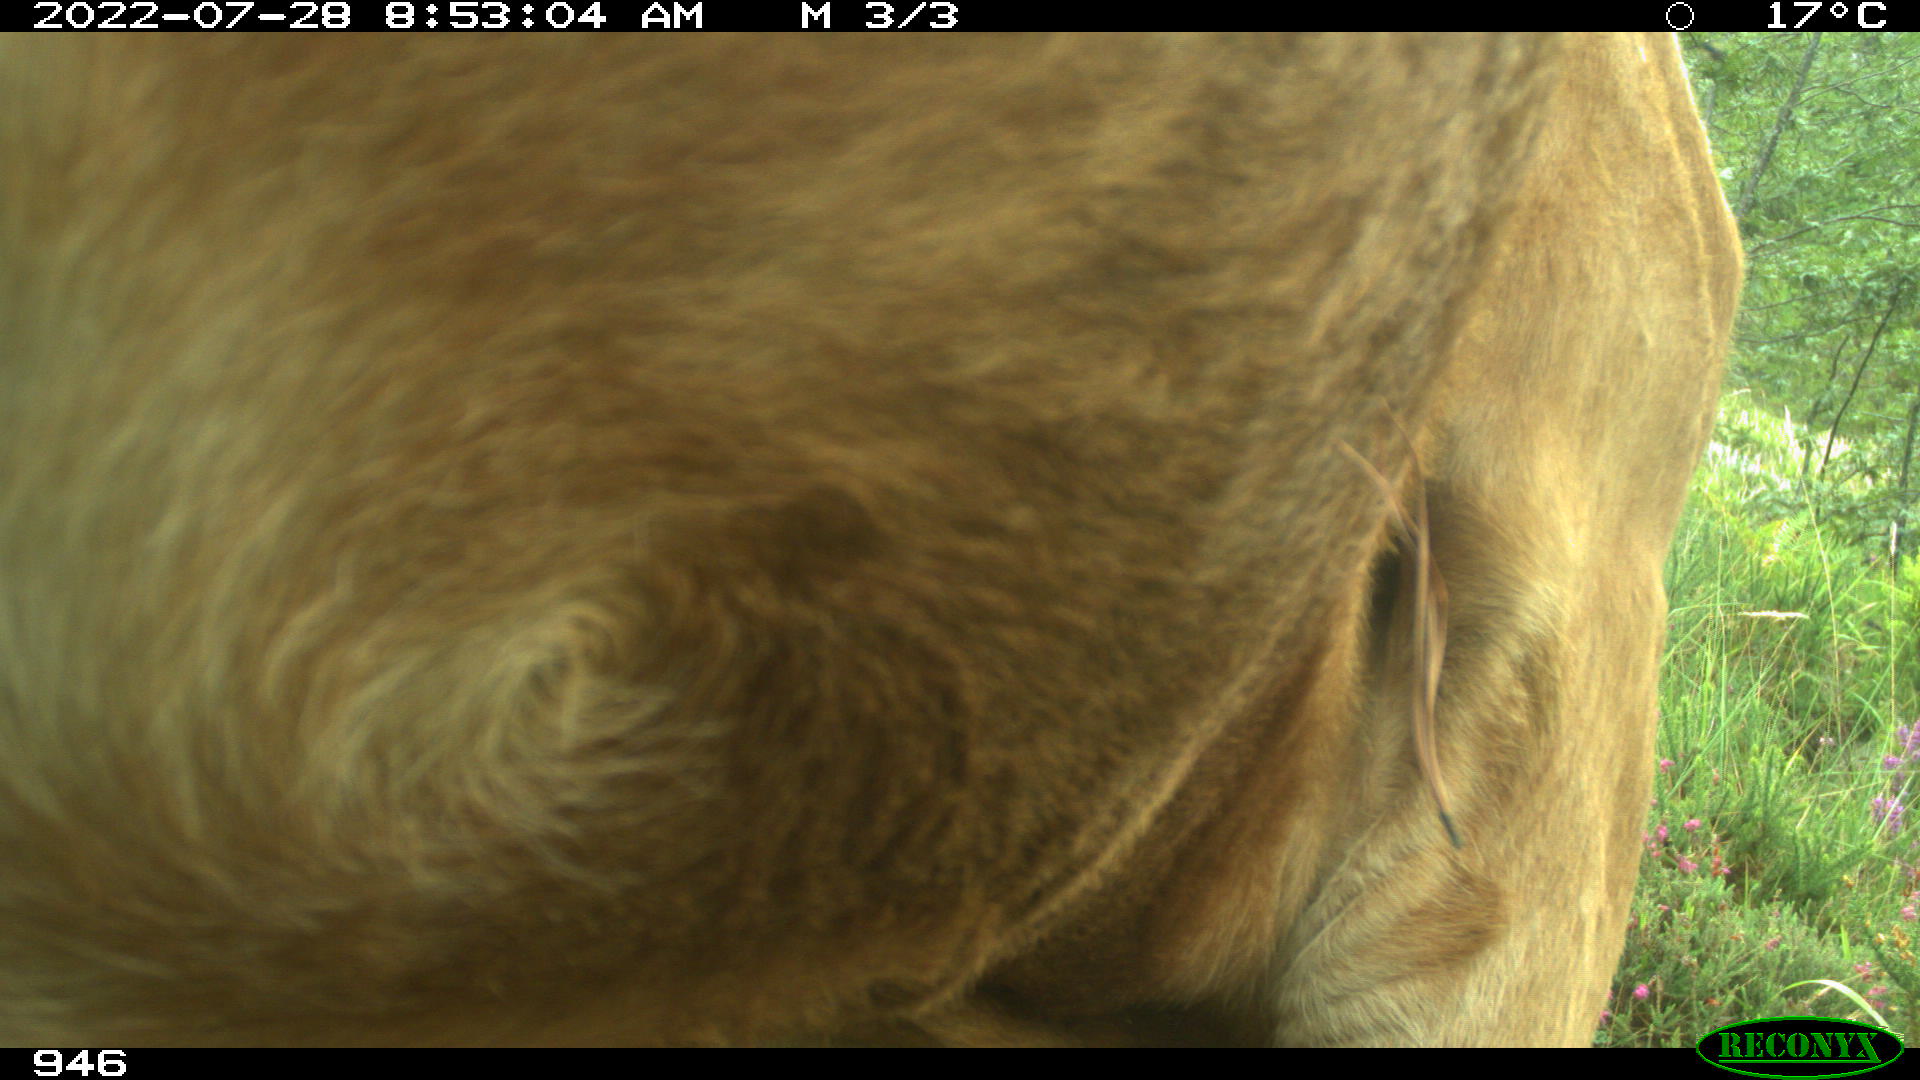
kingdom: Animalia
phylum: Chordata
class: Mammalia
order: Artiodactyla
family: Bovidae
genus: Bos
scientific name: Bos taurus
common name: Domesticated cattle
